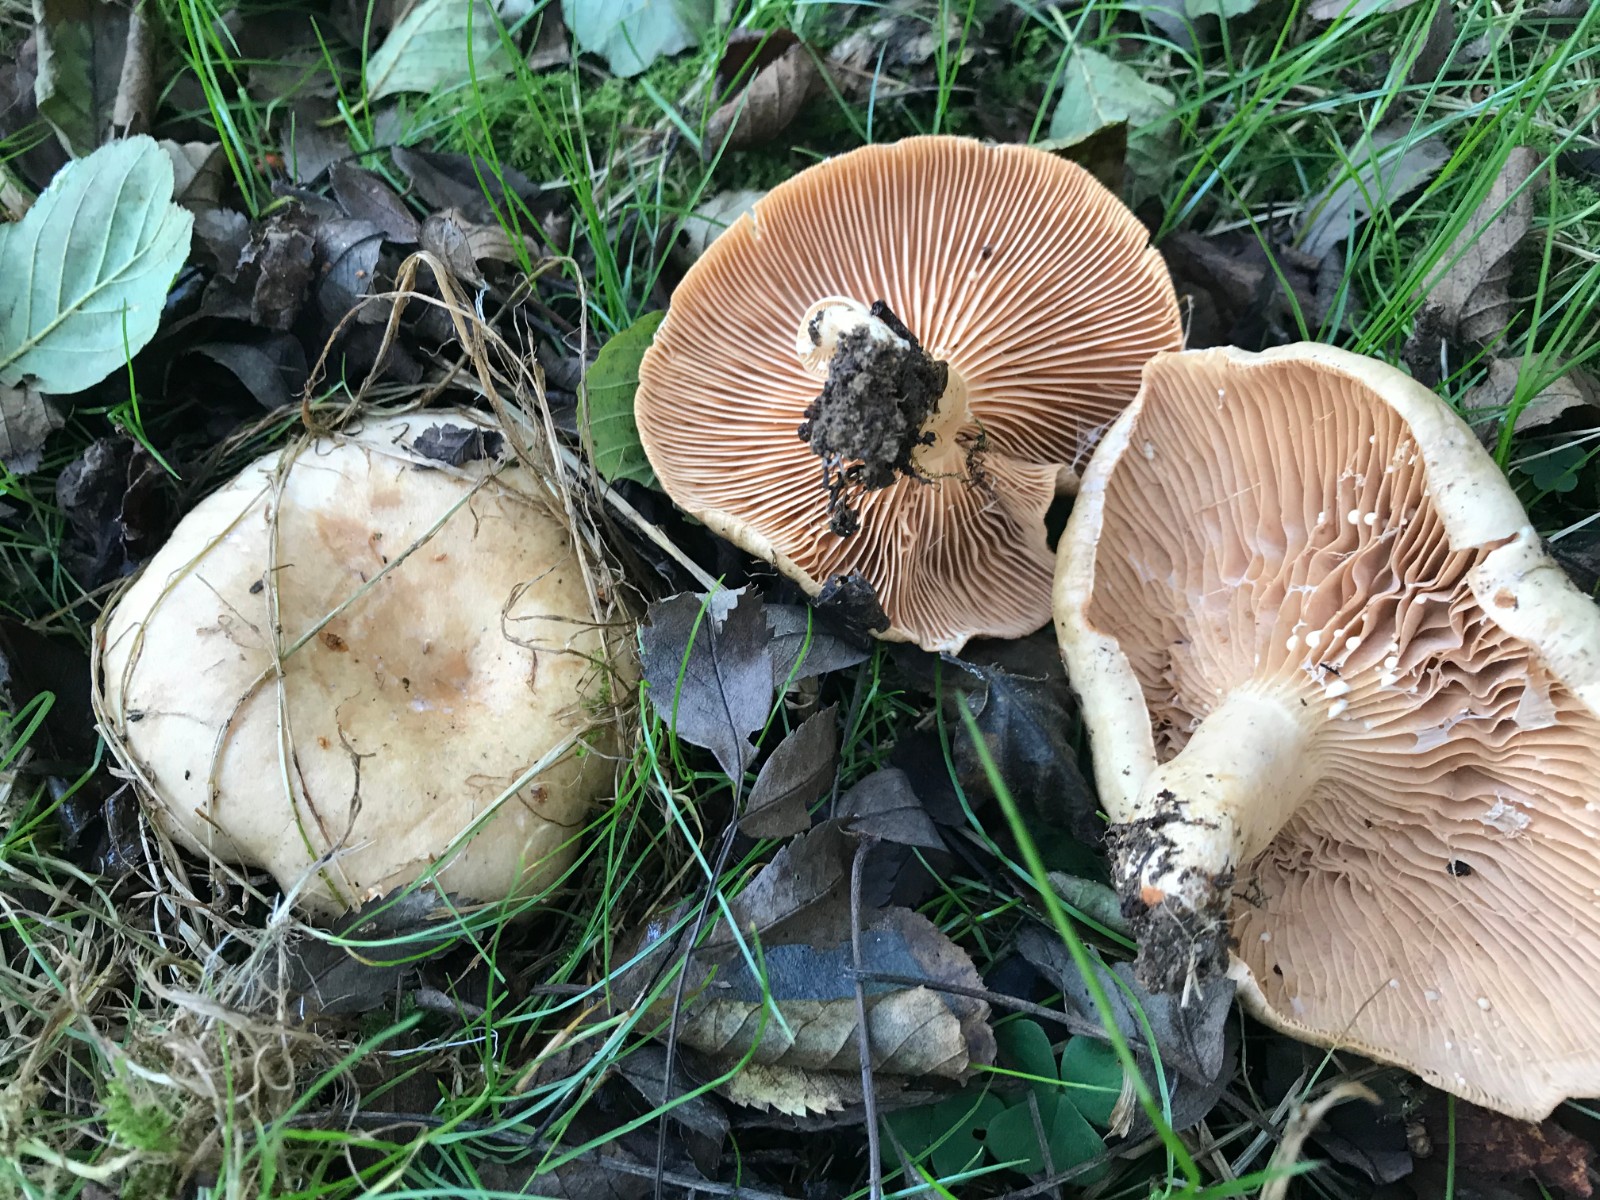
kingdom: Fungi
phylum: Basidiomycota
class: Agaricomycetes
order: Russulales
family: Russulaceae
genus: Lactarius
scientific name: Lactarius pyrogalus
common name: hassel-mælkehat
